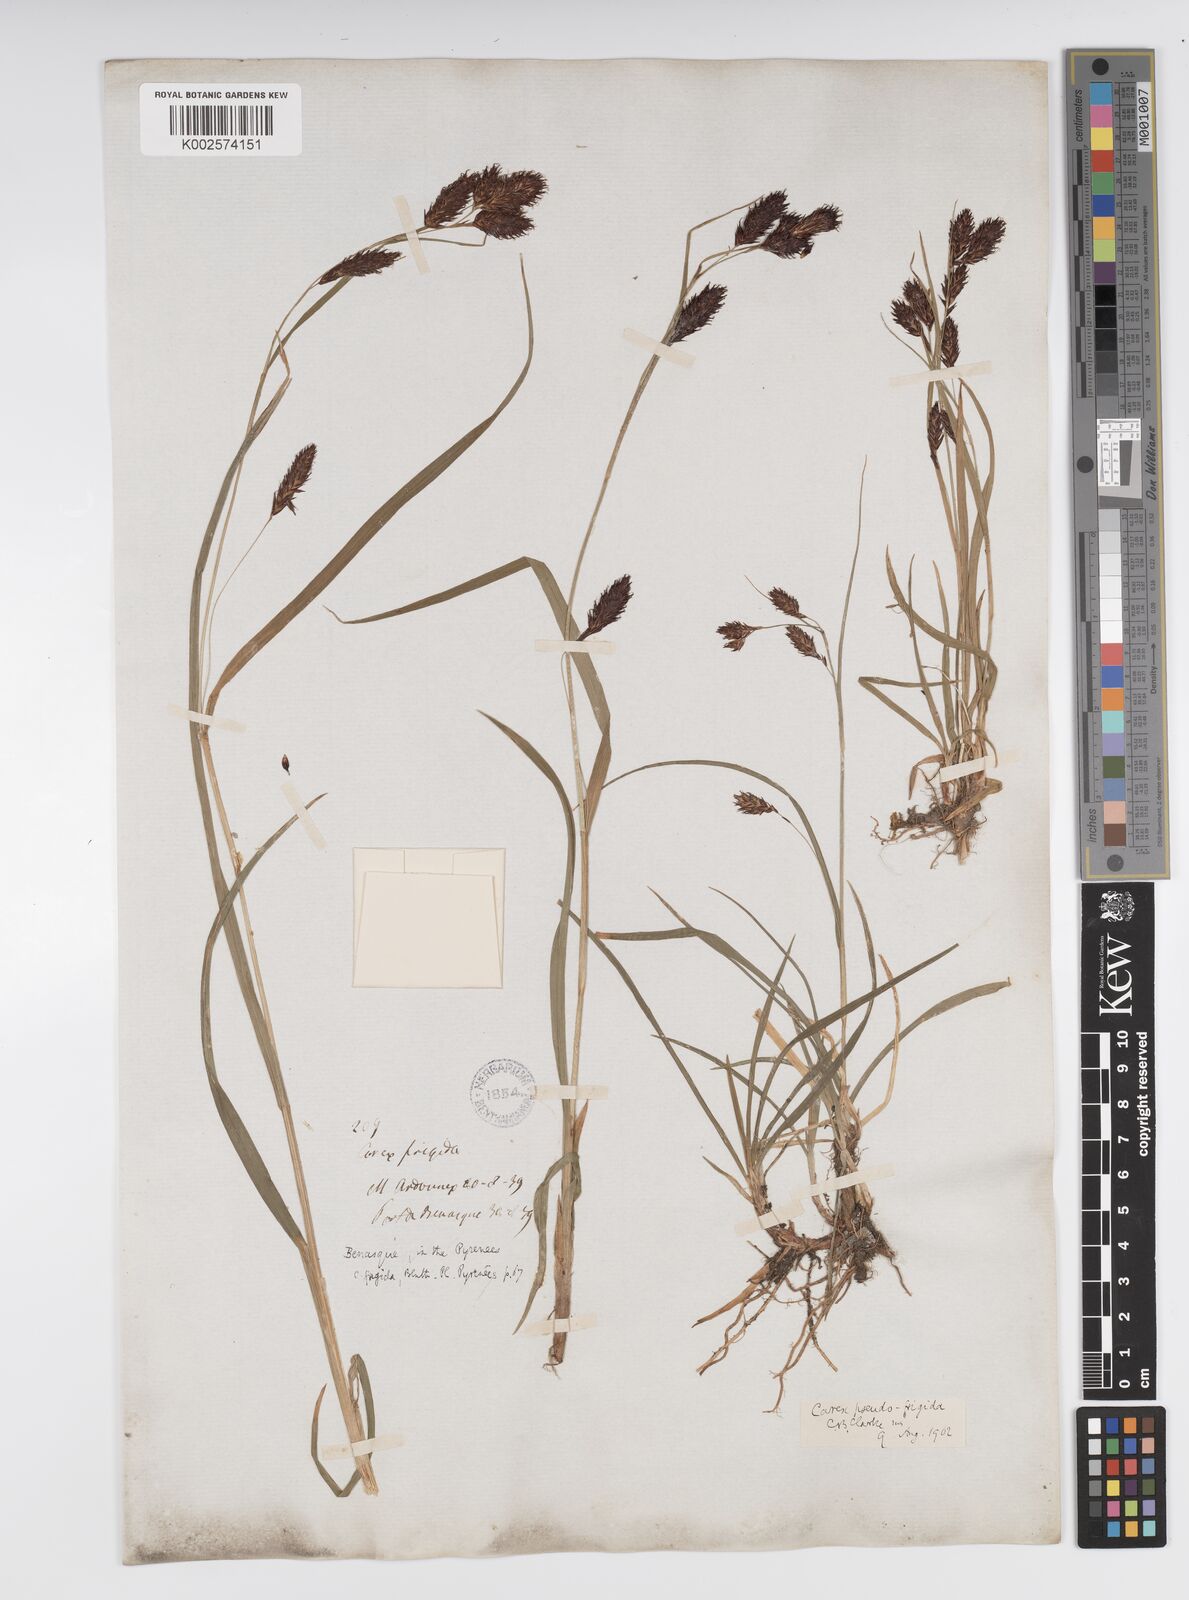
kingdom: Plantae
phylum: Tracheophyta
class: Liliopsida
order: Poales
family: Cyperaceae
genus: Carex
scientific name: Carex frigida
